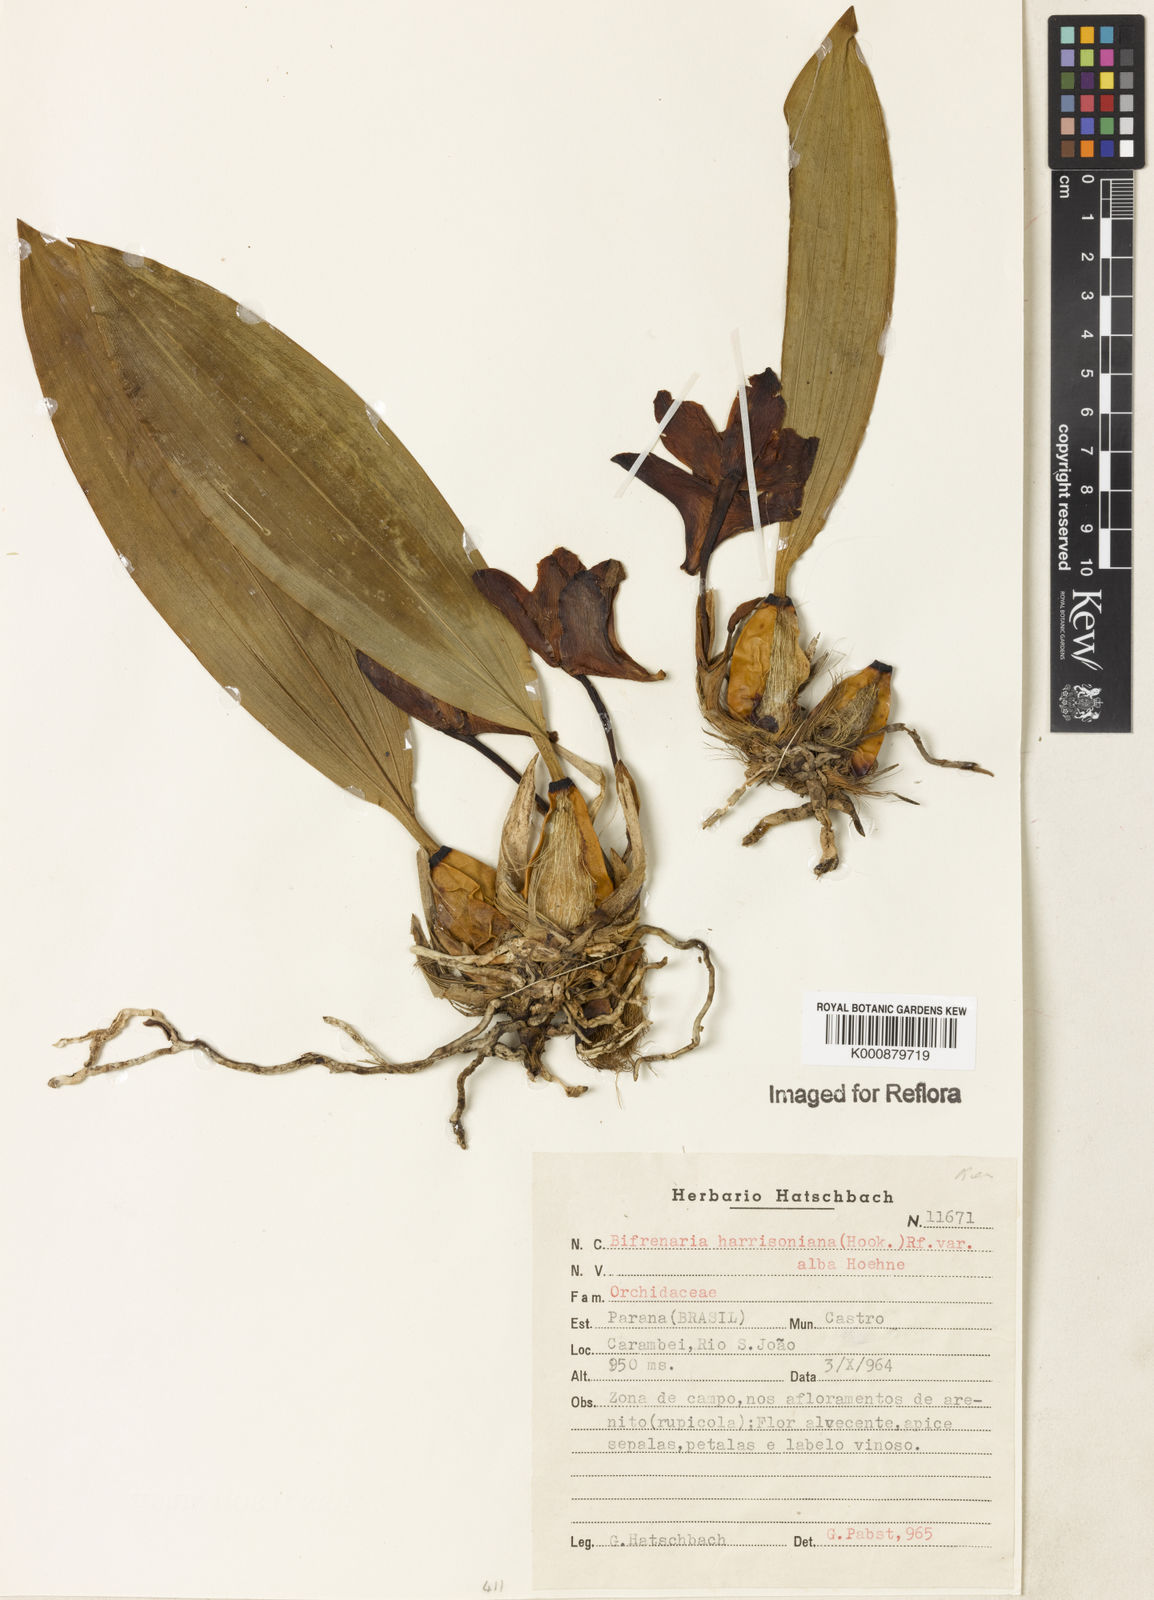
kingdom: Plantae
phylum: Tracheophyta
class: Liliopsida
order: Asparagales
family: Orchidaceae
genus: Bifrenaria
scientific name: Bifrenaria harrisoniae
